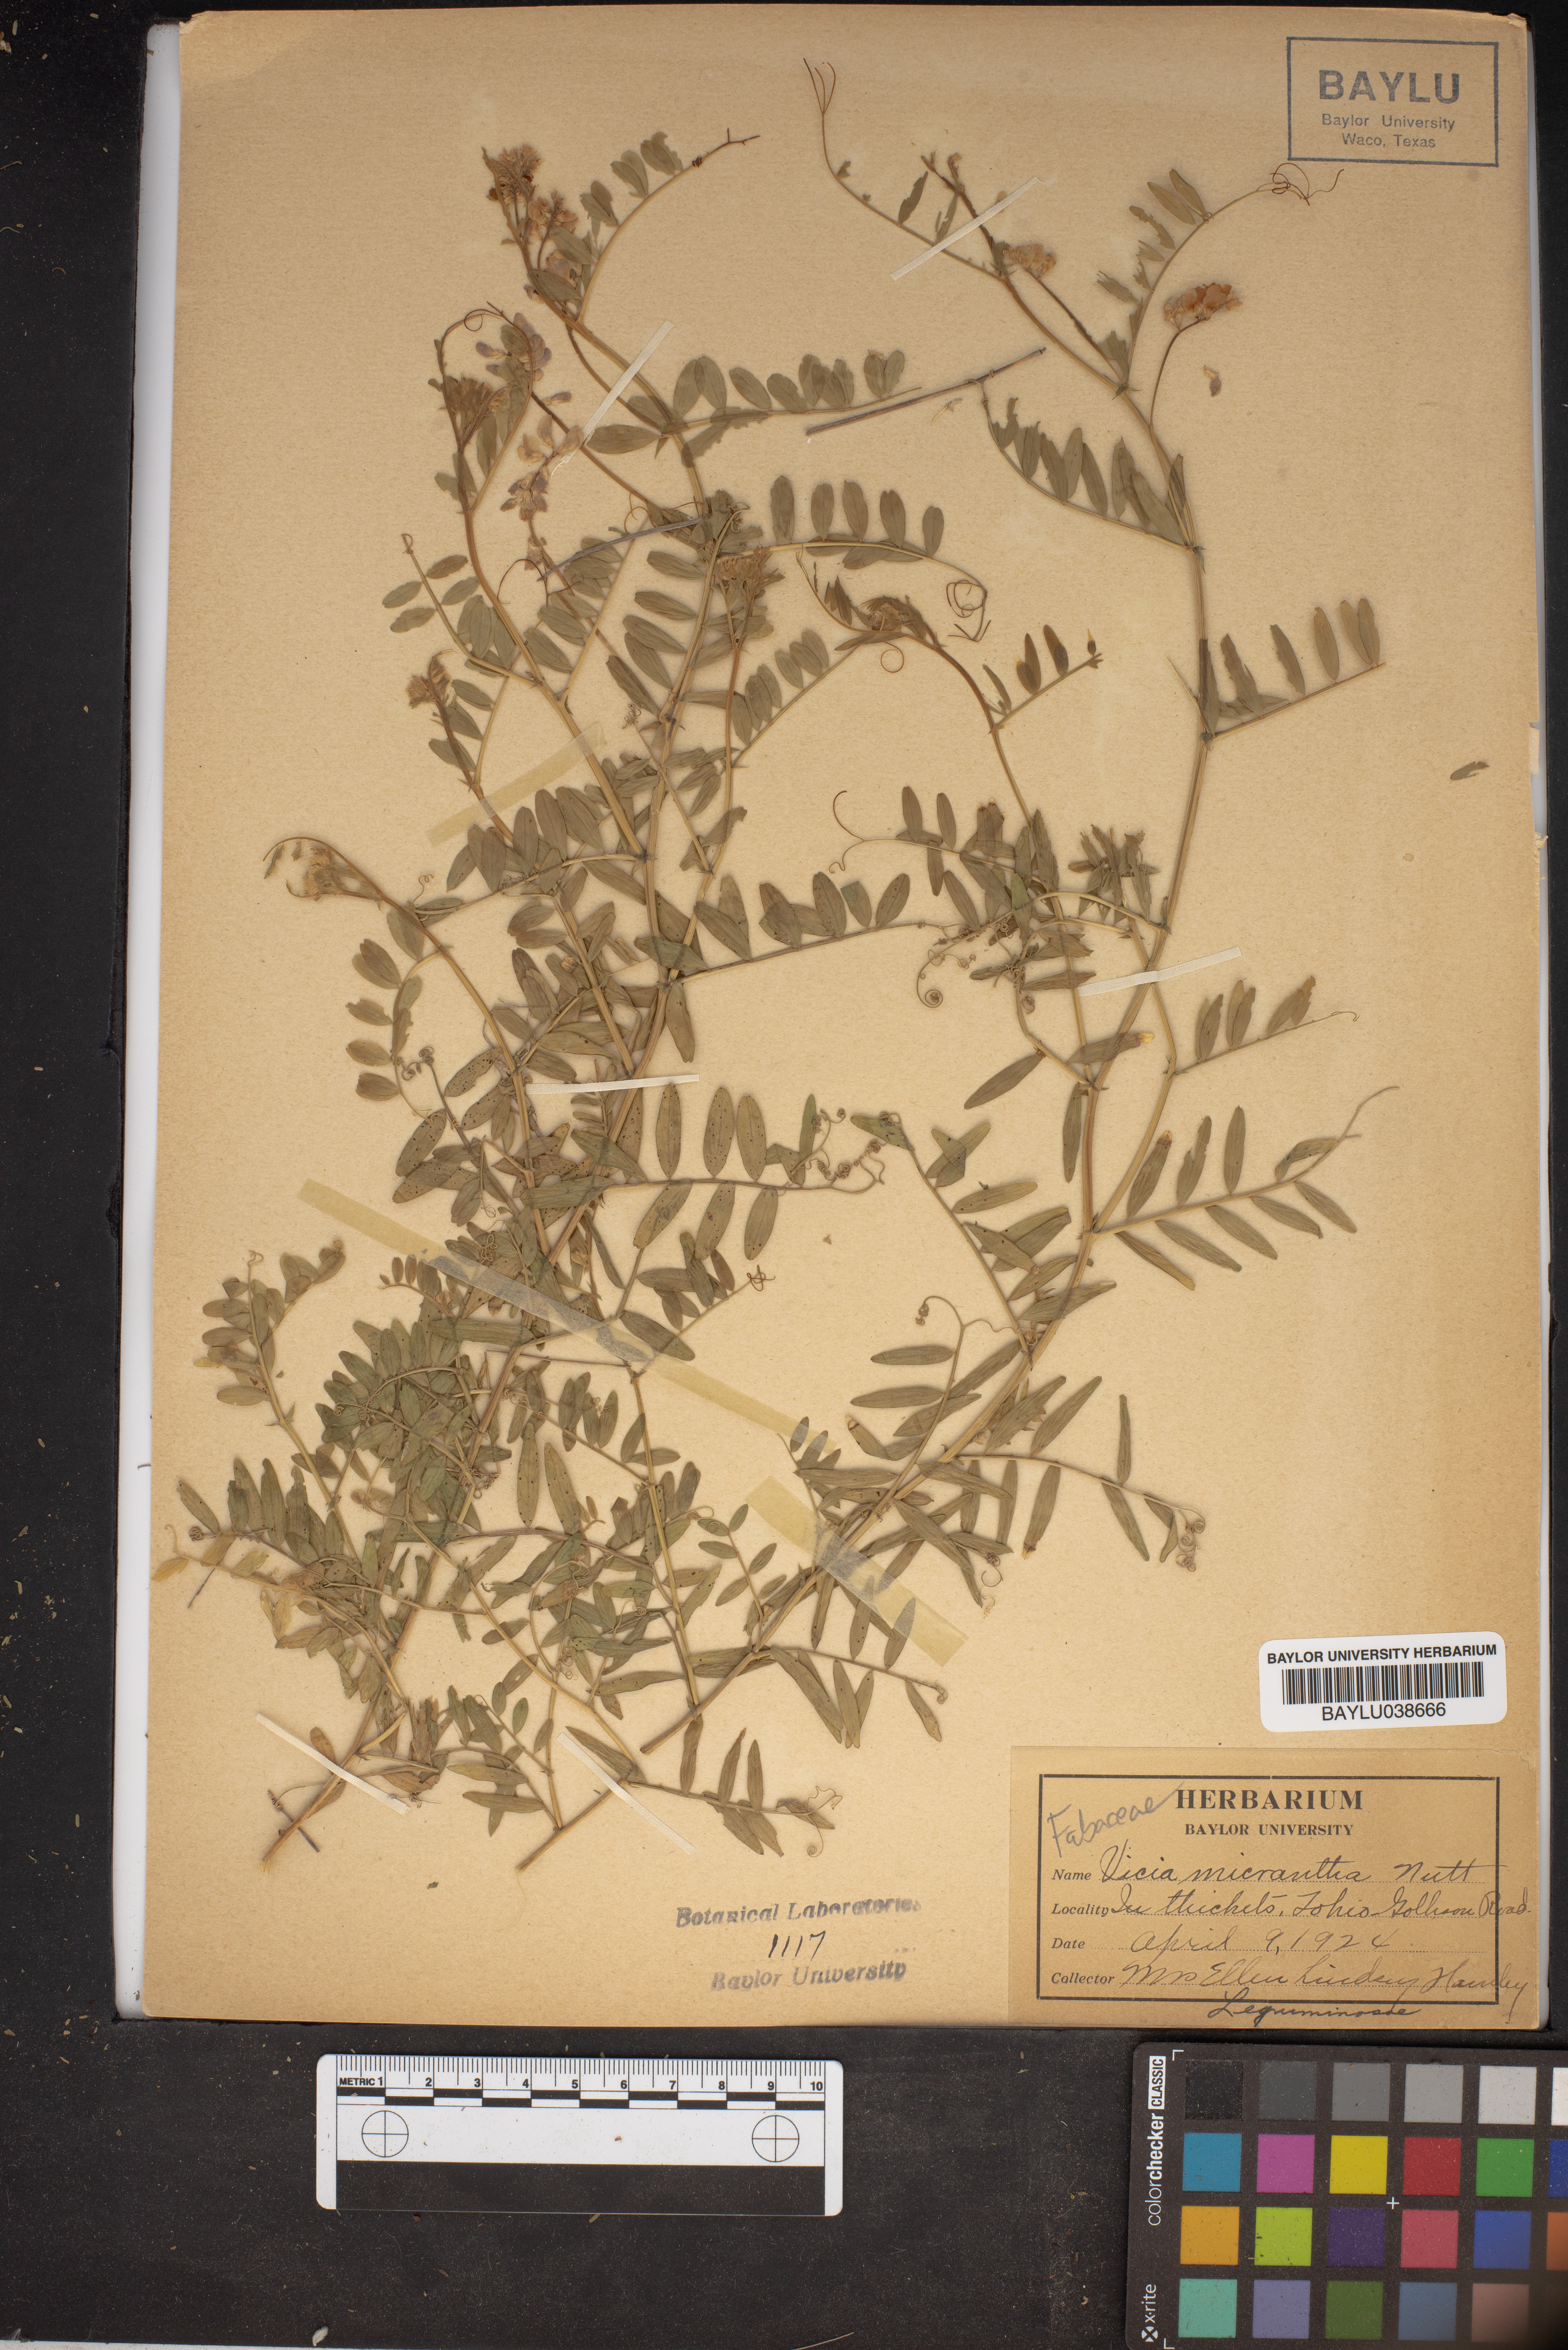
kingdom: Plantae
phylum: Tracheophyta
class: Magnoliopsida
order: Fabales
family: Fabaceae
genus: Vicia
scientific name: Vicia minutiflora
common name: Pygmy-flower vetch
